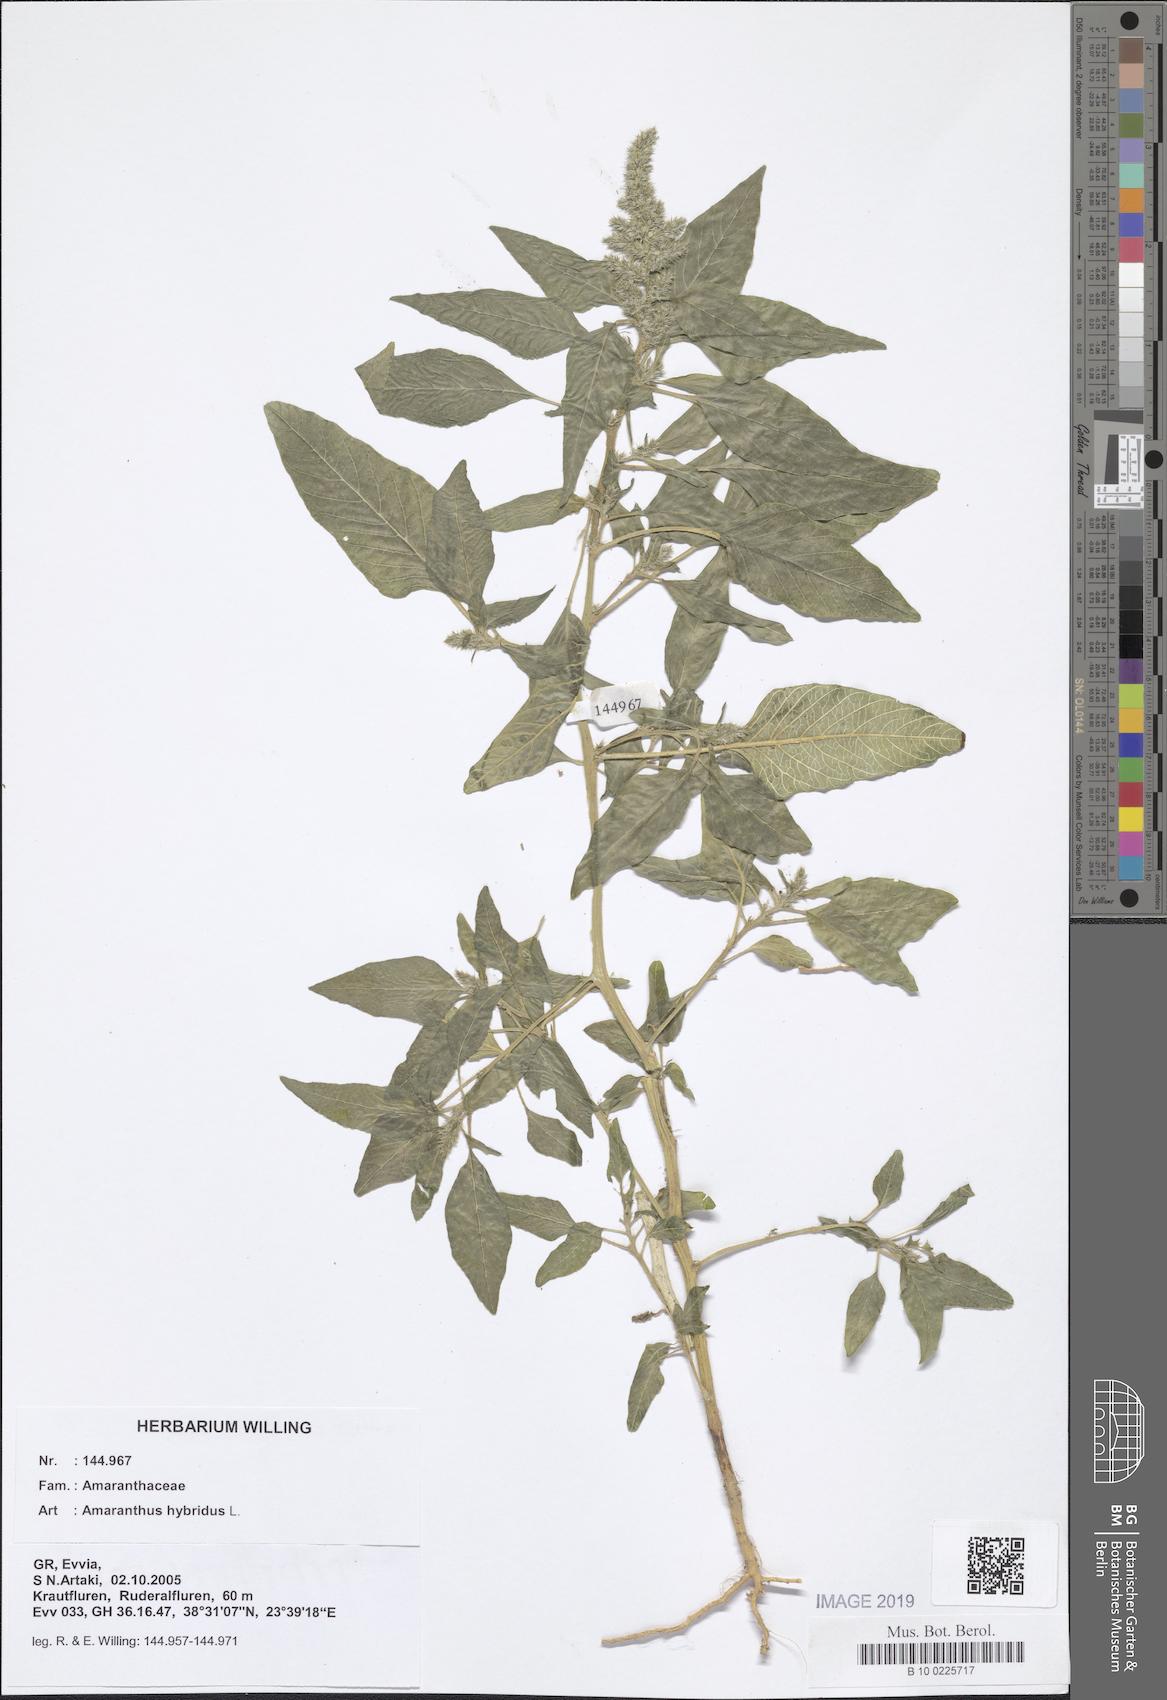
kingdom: Plantae
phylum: Tracheophyta
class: Magnoliopsida
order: Caryophyllales
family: Amaranthaceae
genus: Amaranthus
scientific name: Amaranthus hybridus
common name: Green amaranth
